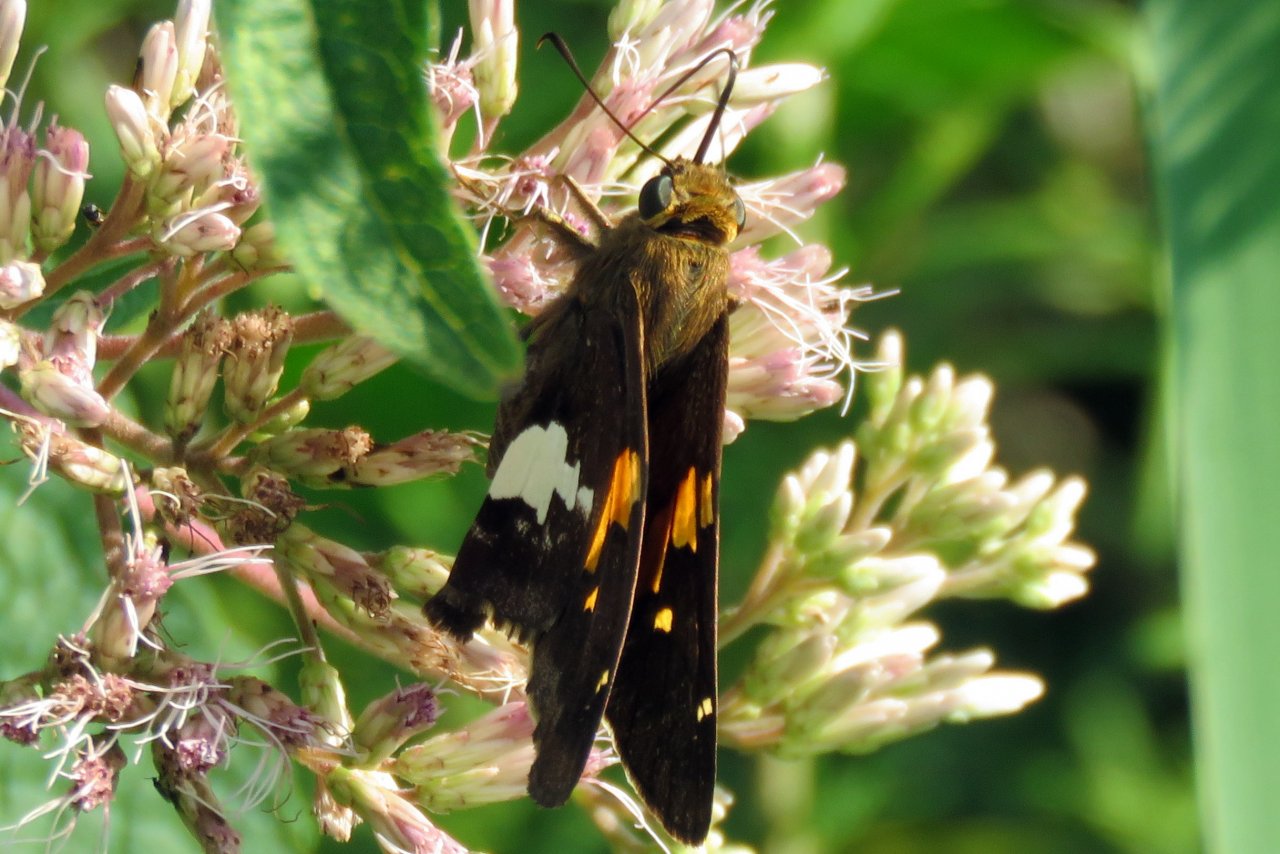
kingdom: Animalia
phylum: Arthropoda
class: Insecta
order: Lepidoptera
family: Hesperiidae
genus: Epargyreus
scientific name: Epargyreus clarus
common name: Silver-spotted Skipper
